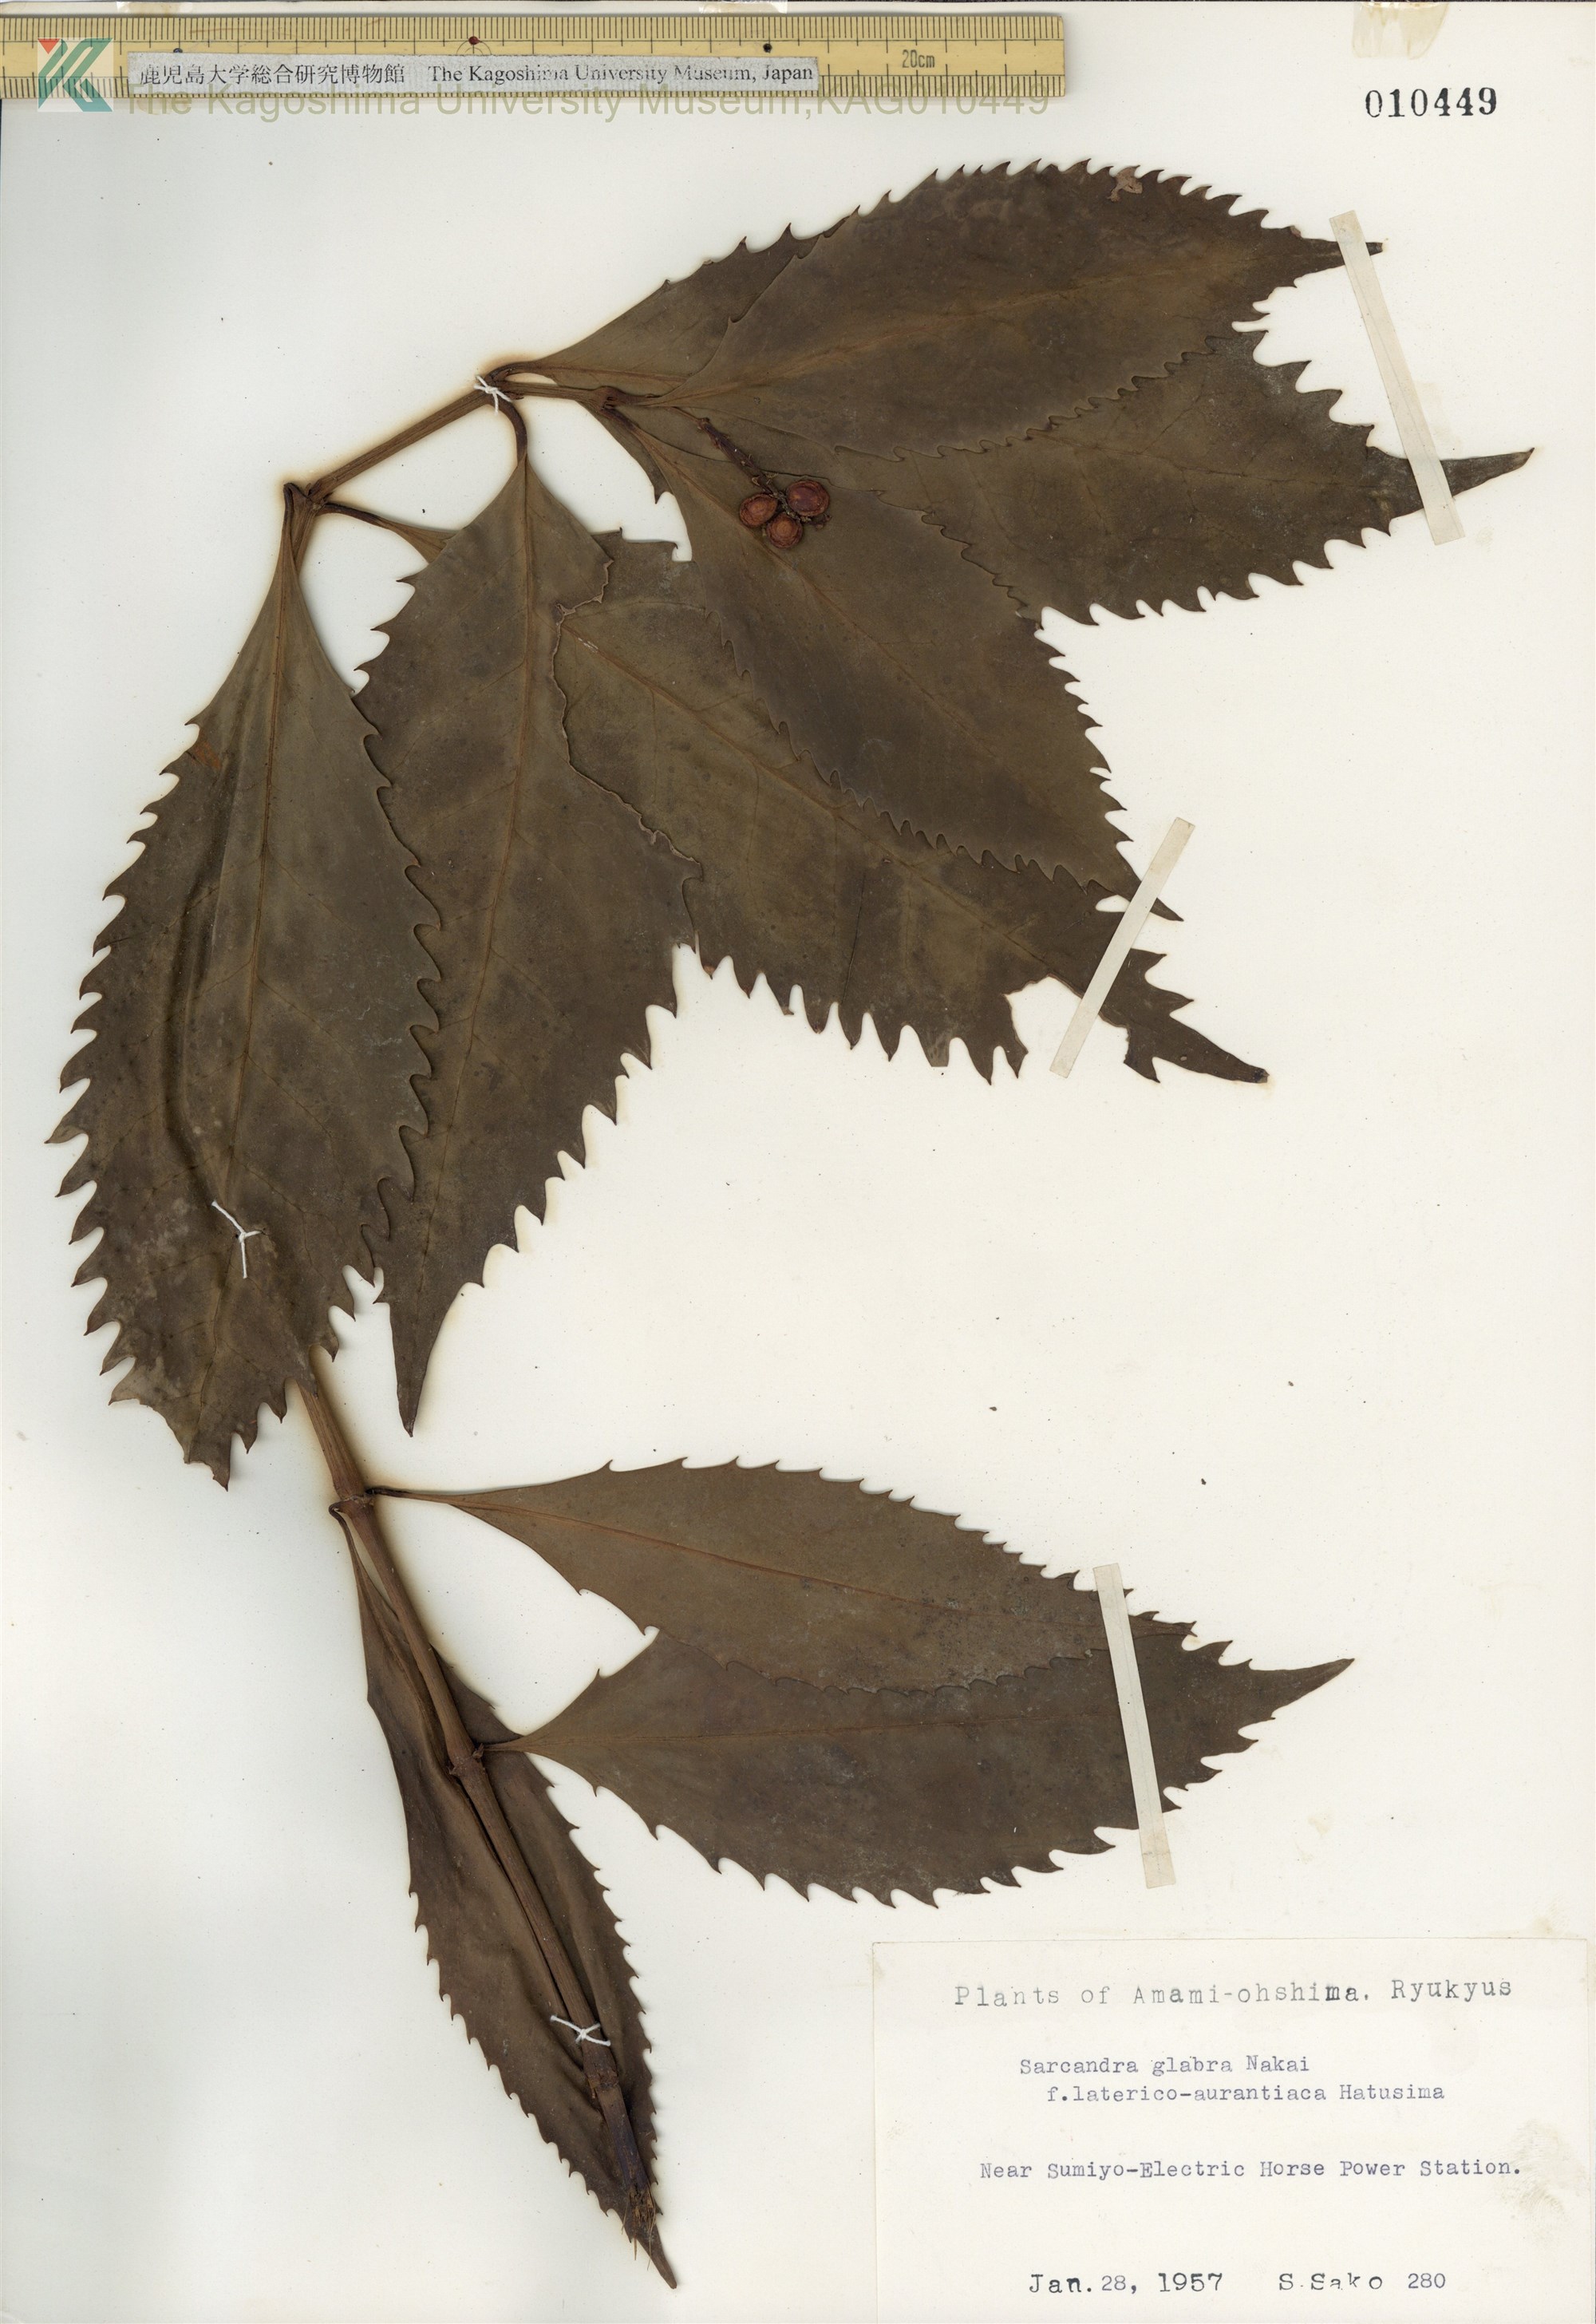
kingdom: Plantae
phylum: Tracheophyta
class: Magnoliopsida
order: Chloranthales
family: Chloranthaceae
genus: Sarcandra
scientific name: Sarcandra glabra
